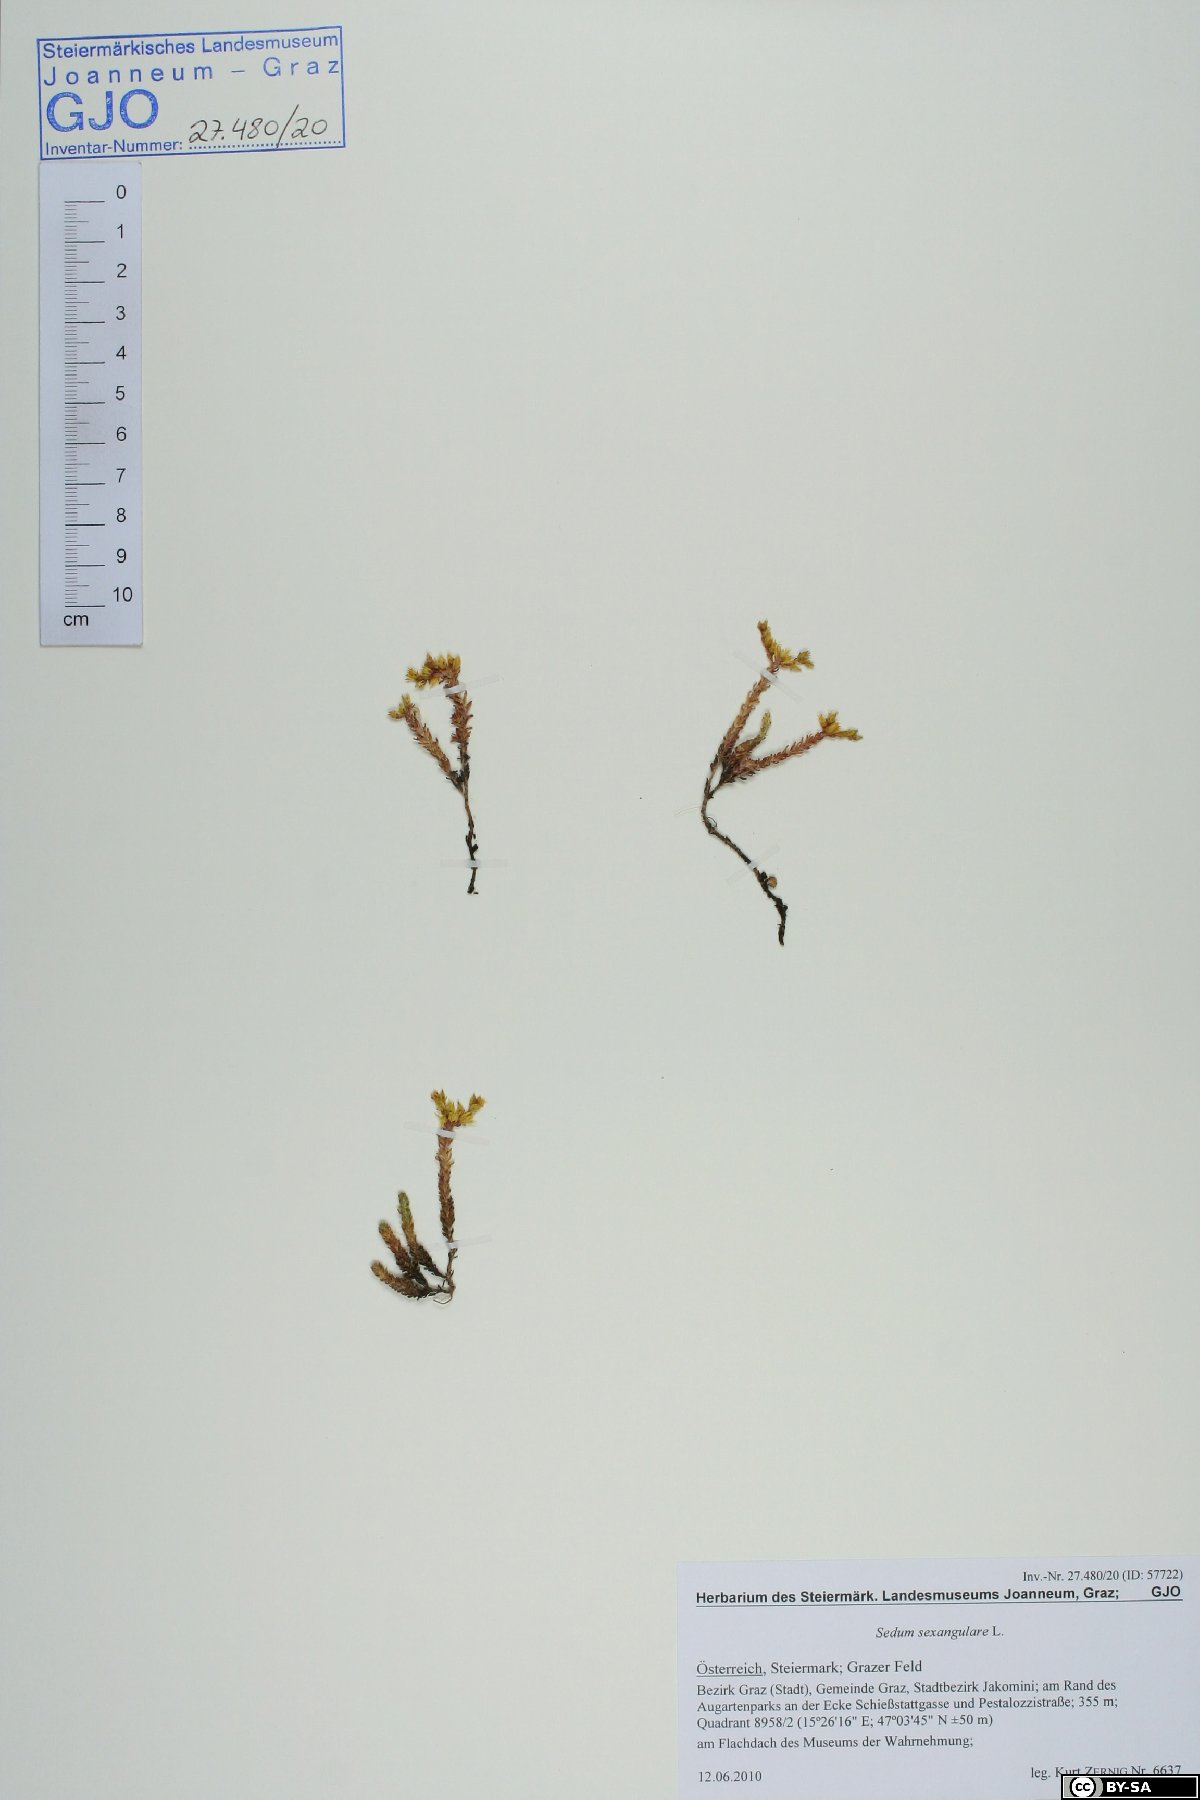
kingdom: Plantae
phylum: Tracheophyta
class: Magnoliopsida
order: Saxifragales
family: Crassulaceae
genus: Sedum
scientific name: Sedum sexangulare
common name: Tasteless stonecrop
